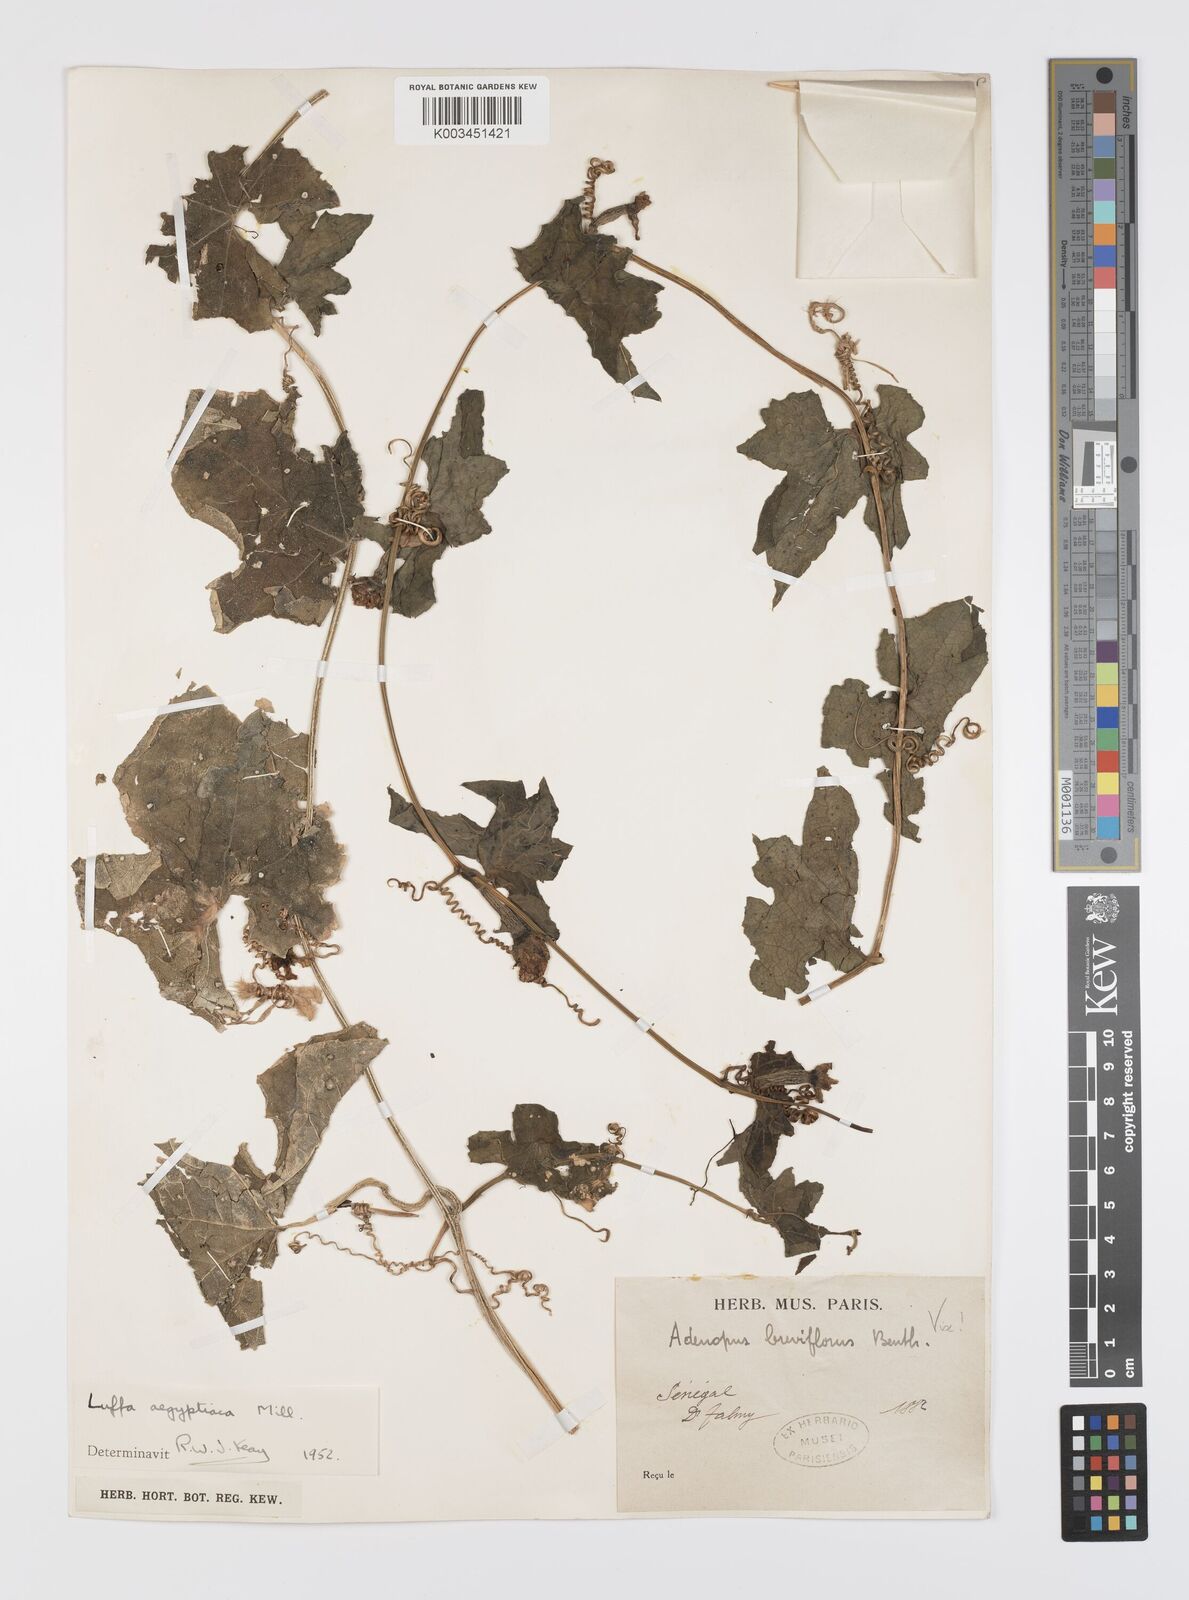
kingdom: Plantae
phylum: Tracheophyta
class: Magnoliopsida
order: Cucurbitales
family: Cucurbitaceae
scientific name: Cucurbitaceae
